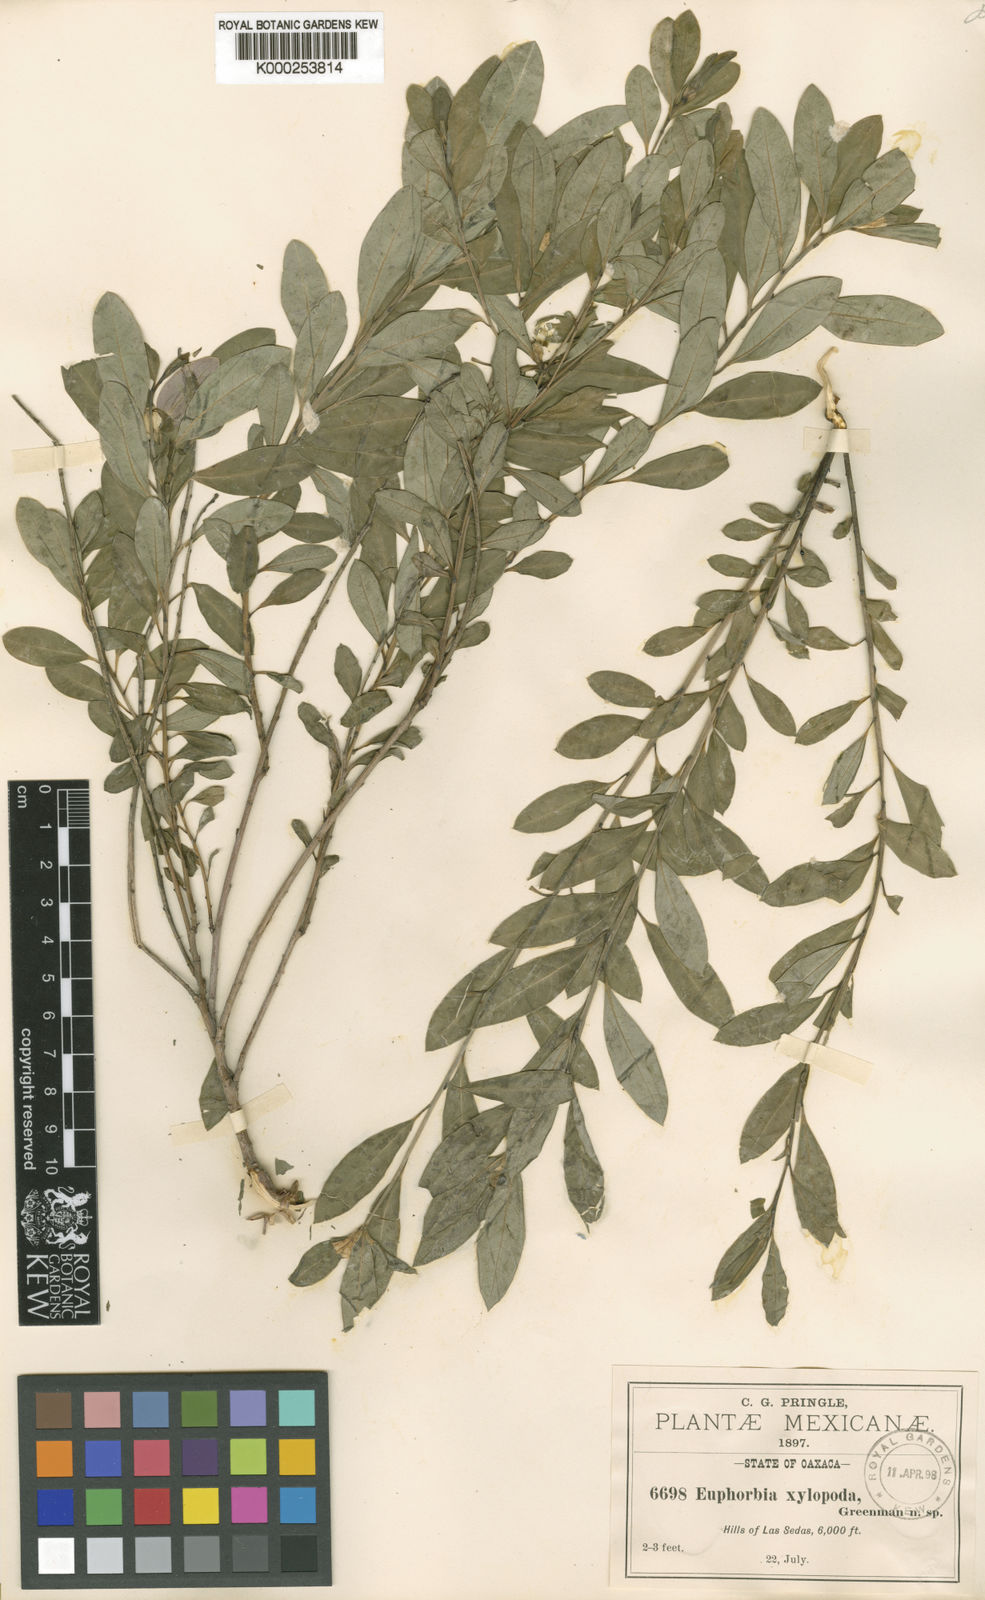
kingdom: Plantae
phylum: Tracheophyta
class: Magnoliopsida
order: Malpighiales
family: Euphorbiaceae
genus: Euphorbia
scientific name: Euphorbia xylopoda
